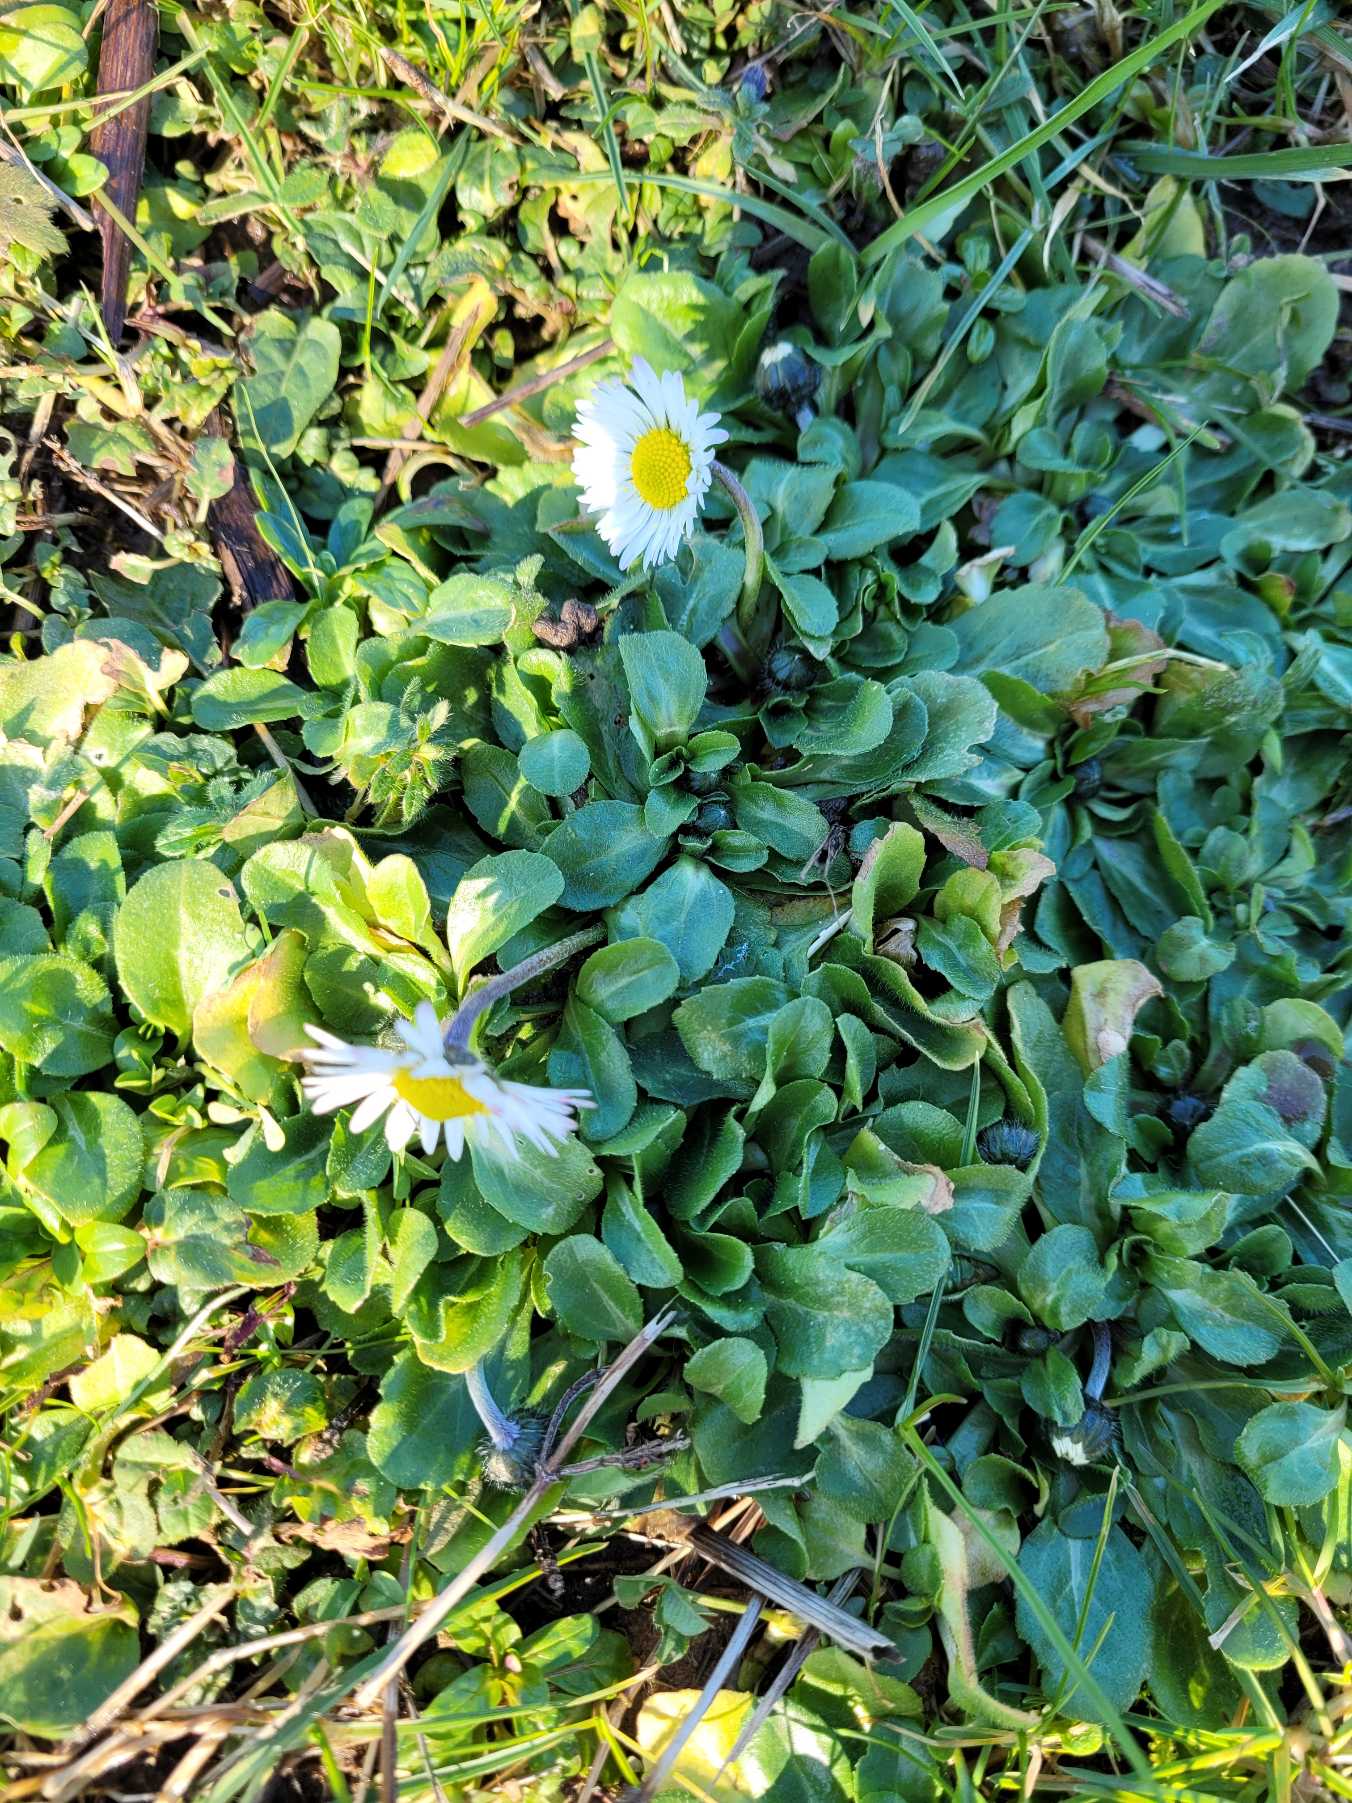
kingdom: Plantae
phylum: Tracheophyta
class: Magnoliopsida
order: Asterales
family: Asteraceae
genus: Bellis
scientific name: Bellis perennis
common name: Tusindfryd
